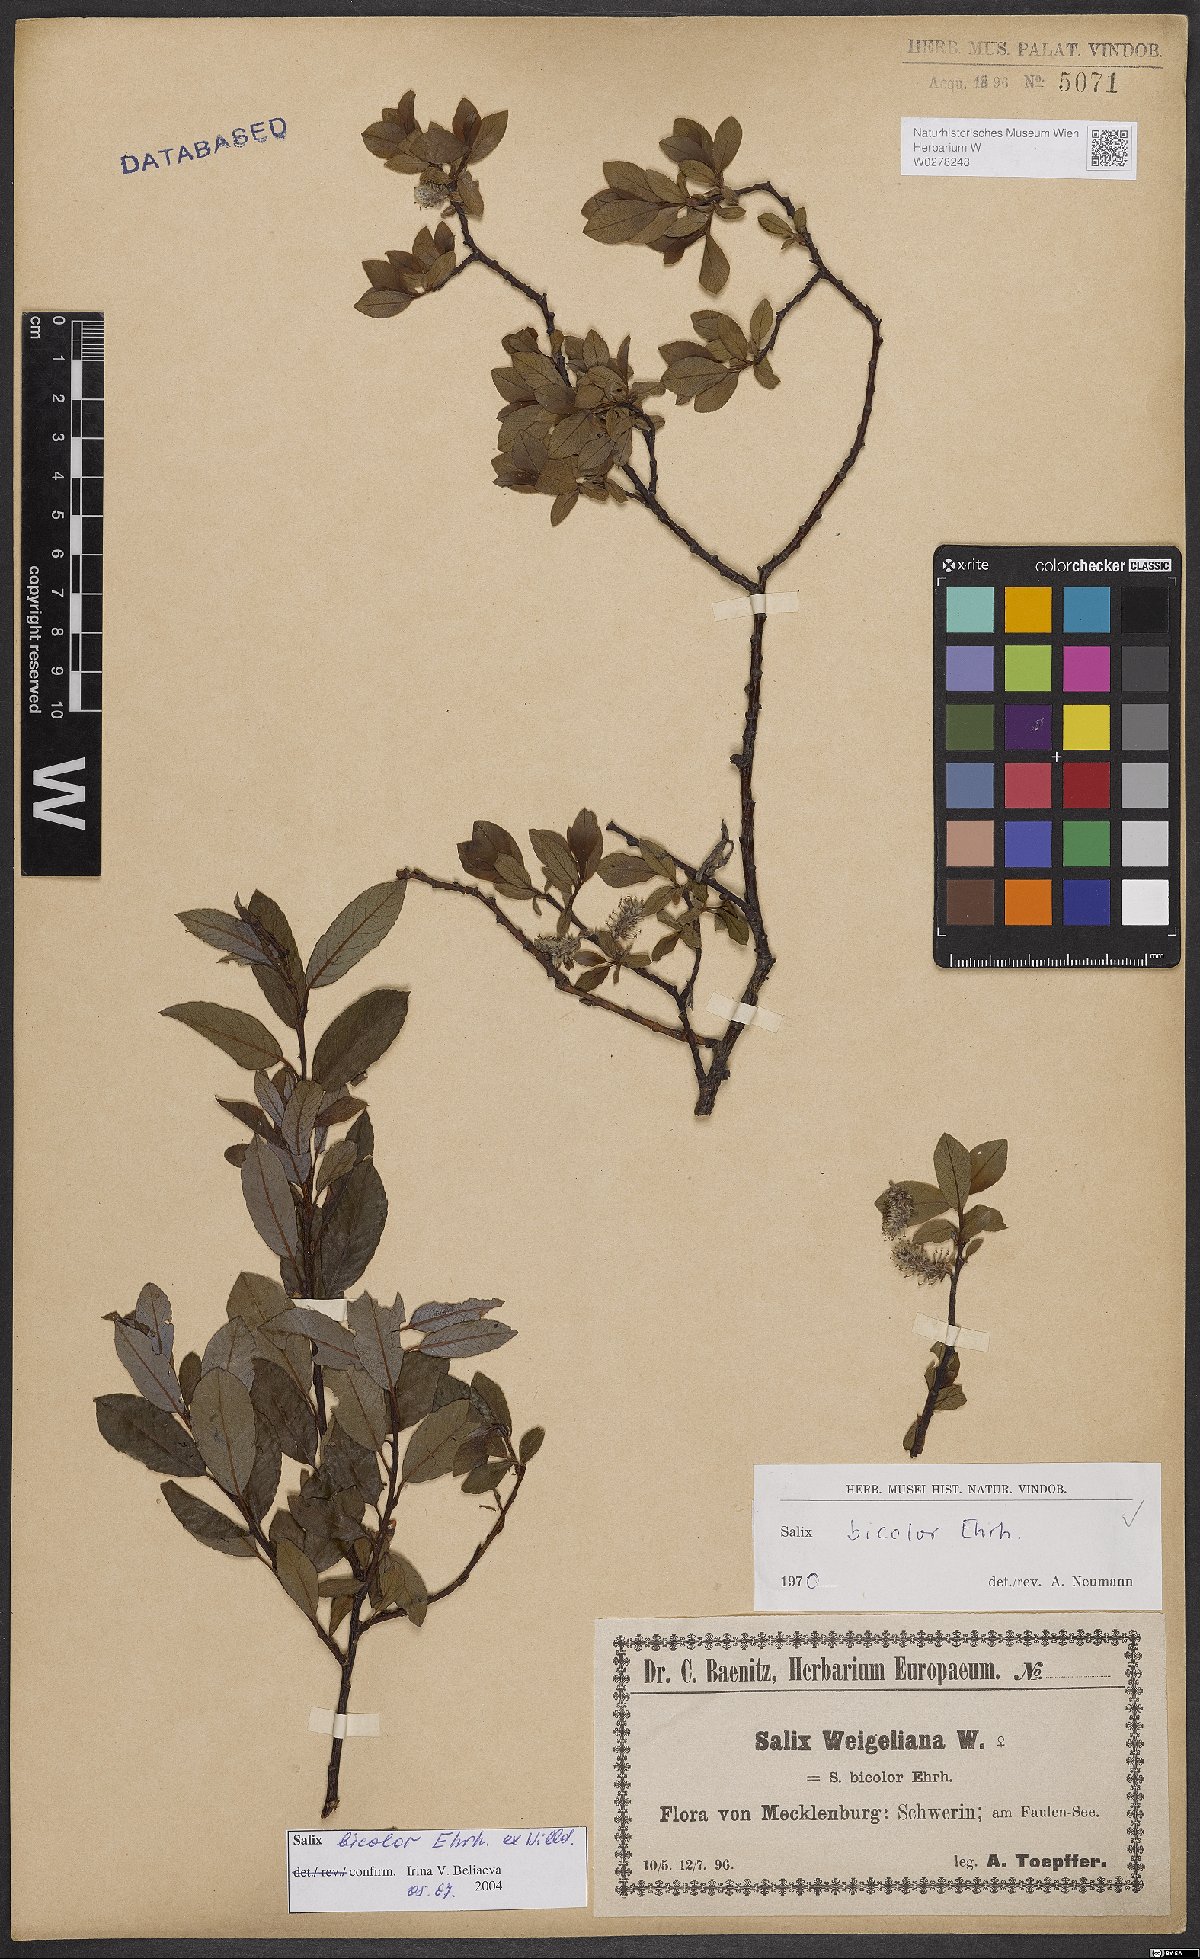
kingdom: Plantae
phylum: Tracheophyta
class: Magnoliopsida
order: Malpighiales
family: Salicaceae
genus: Salix
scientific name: Salix bicolor
